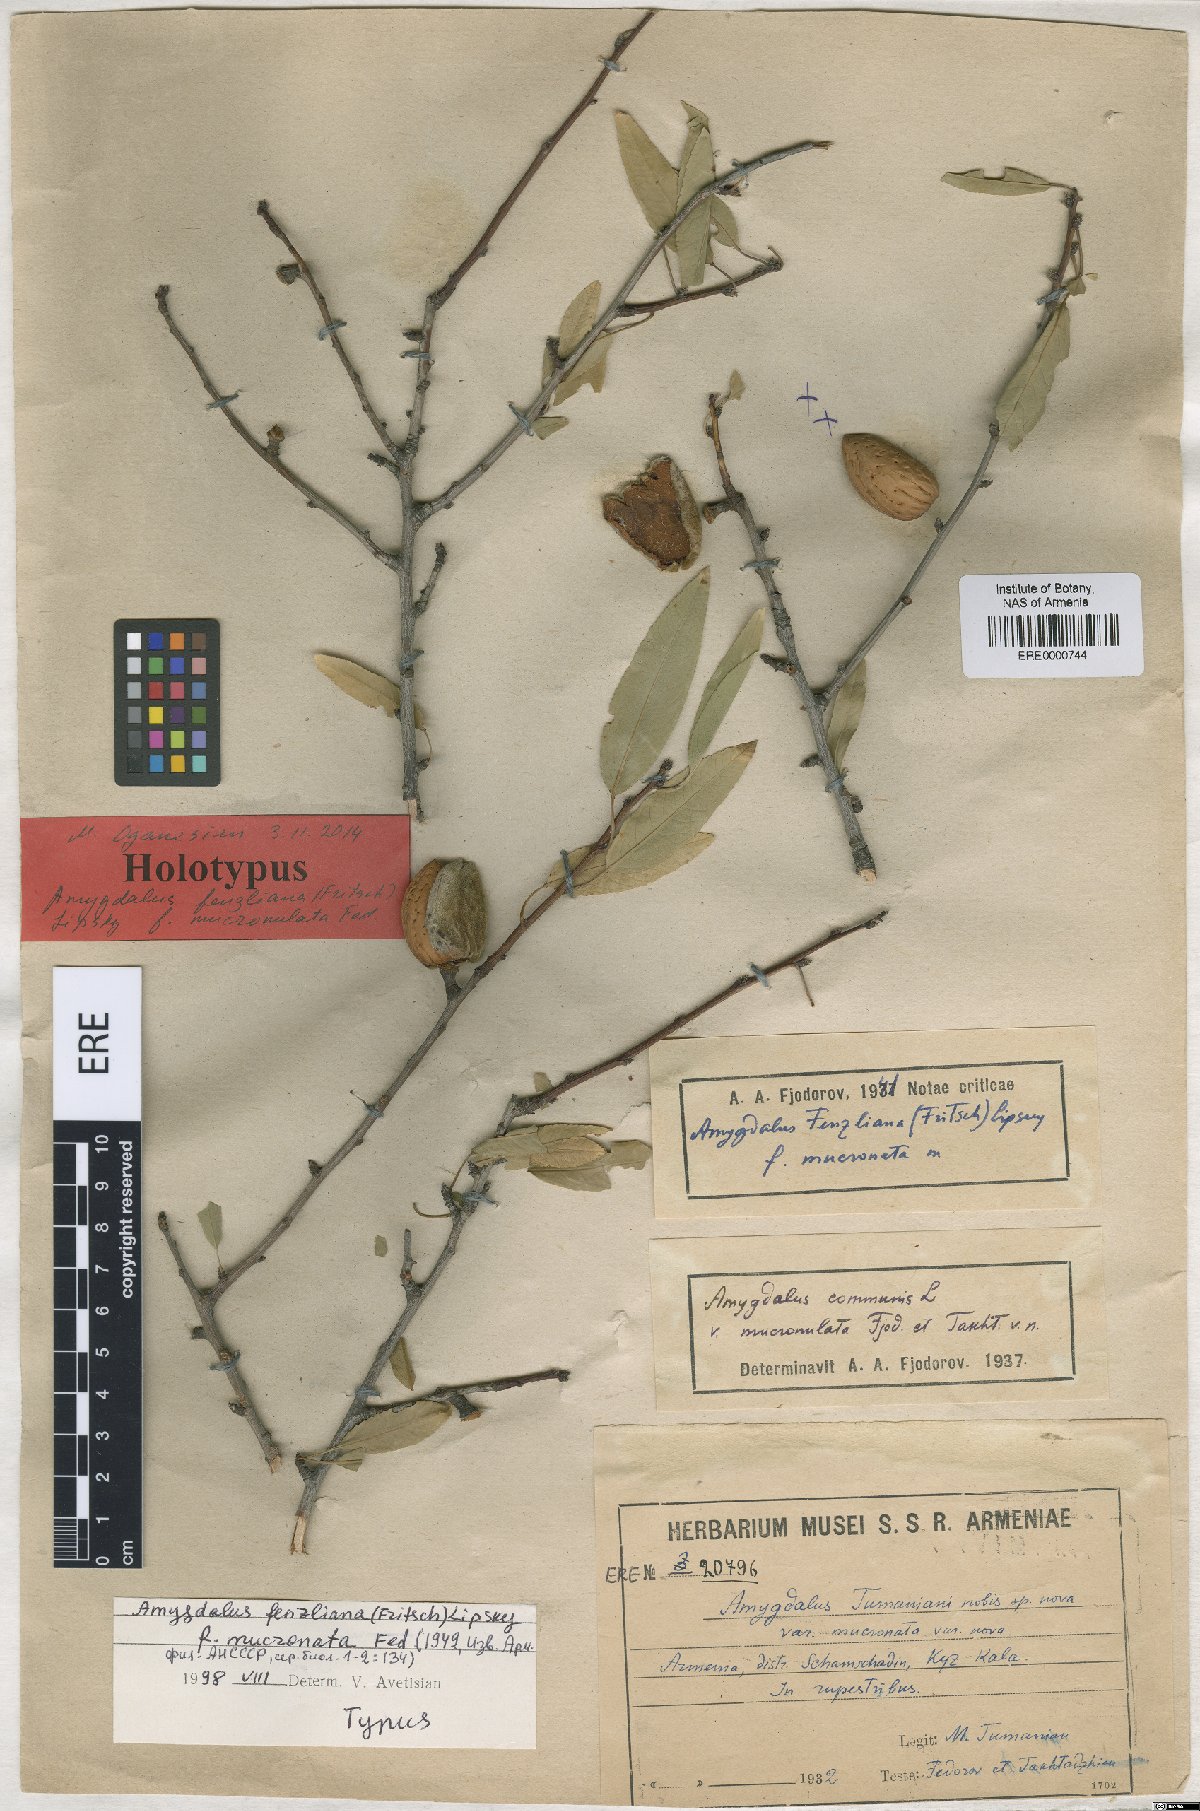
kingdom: Plantae
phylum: Tracheophyta
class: Magnoliopsida
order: Rosales
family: Rosaceae
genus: Prunus
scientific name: Prunus fenzliana
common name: Fenzls almond
